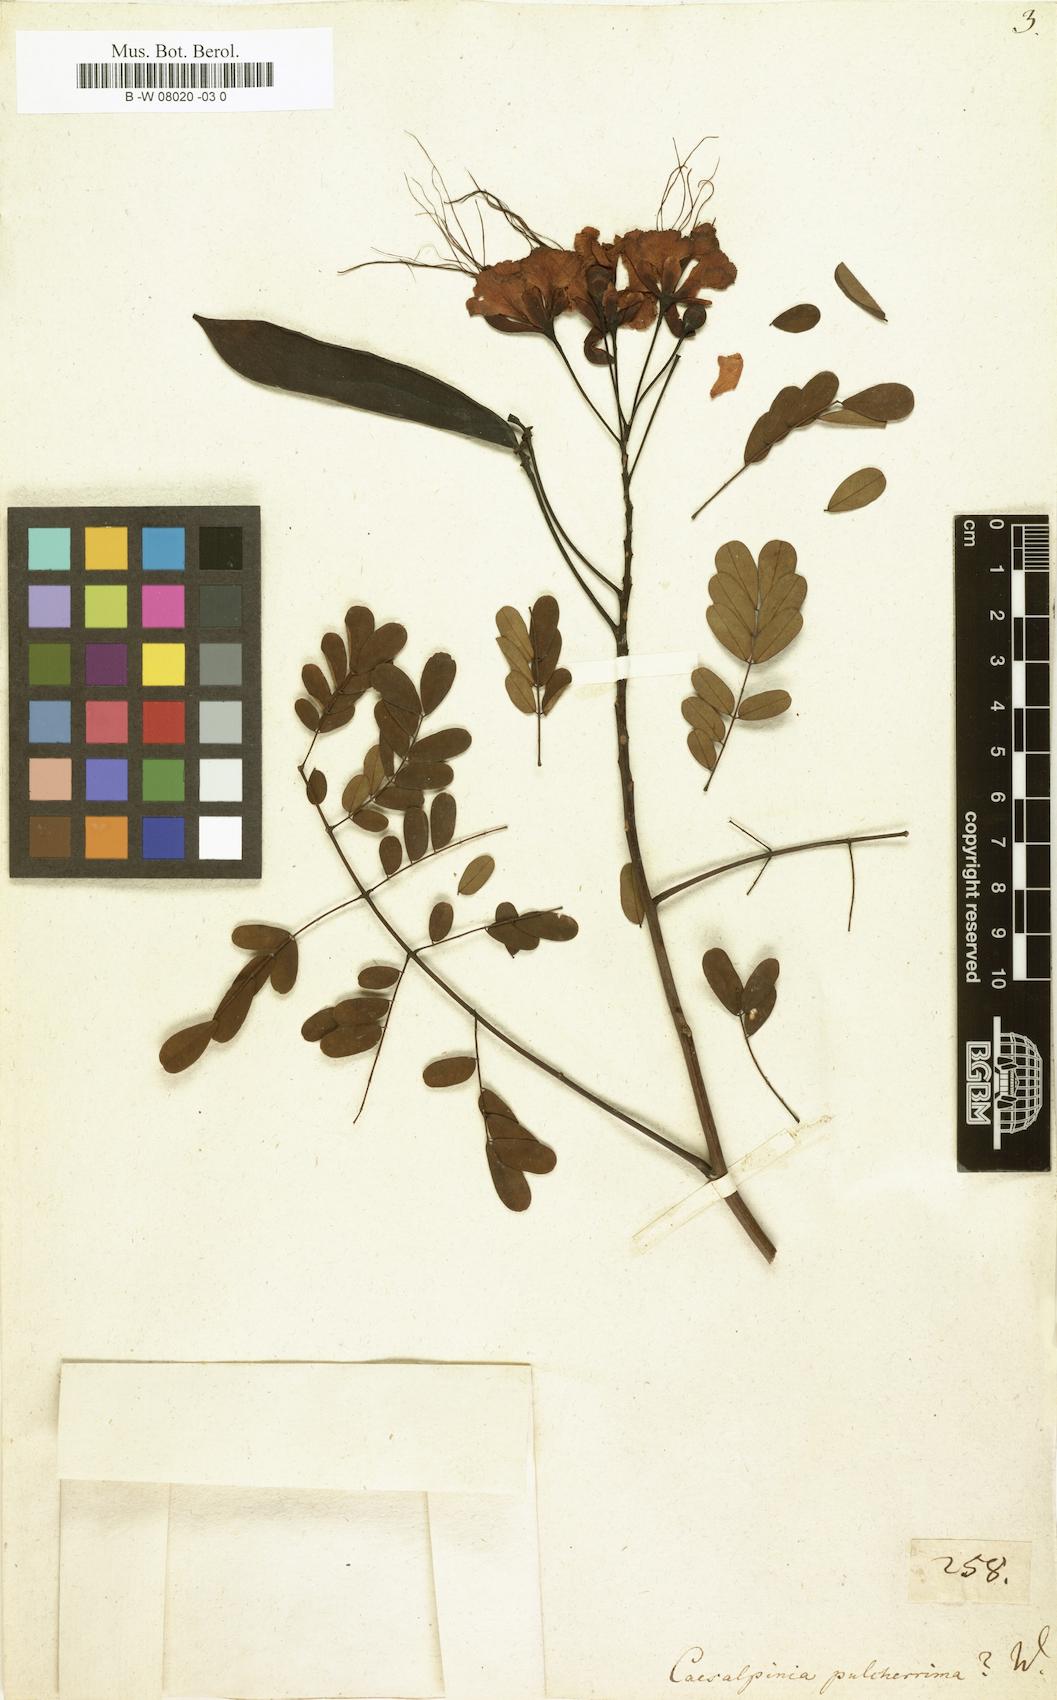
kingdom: Plantae
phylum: Tracheophyta
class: Magnoliopsida
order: Fabales
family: Fabaceae
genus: Caesalpinia
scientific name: Caesalpinia pulcherrima
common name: Pride-of-barbados
